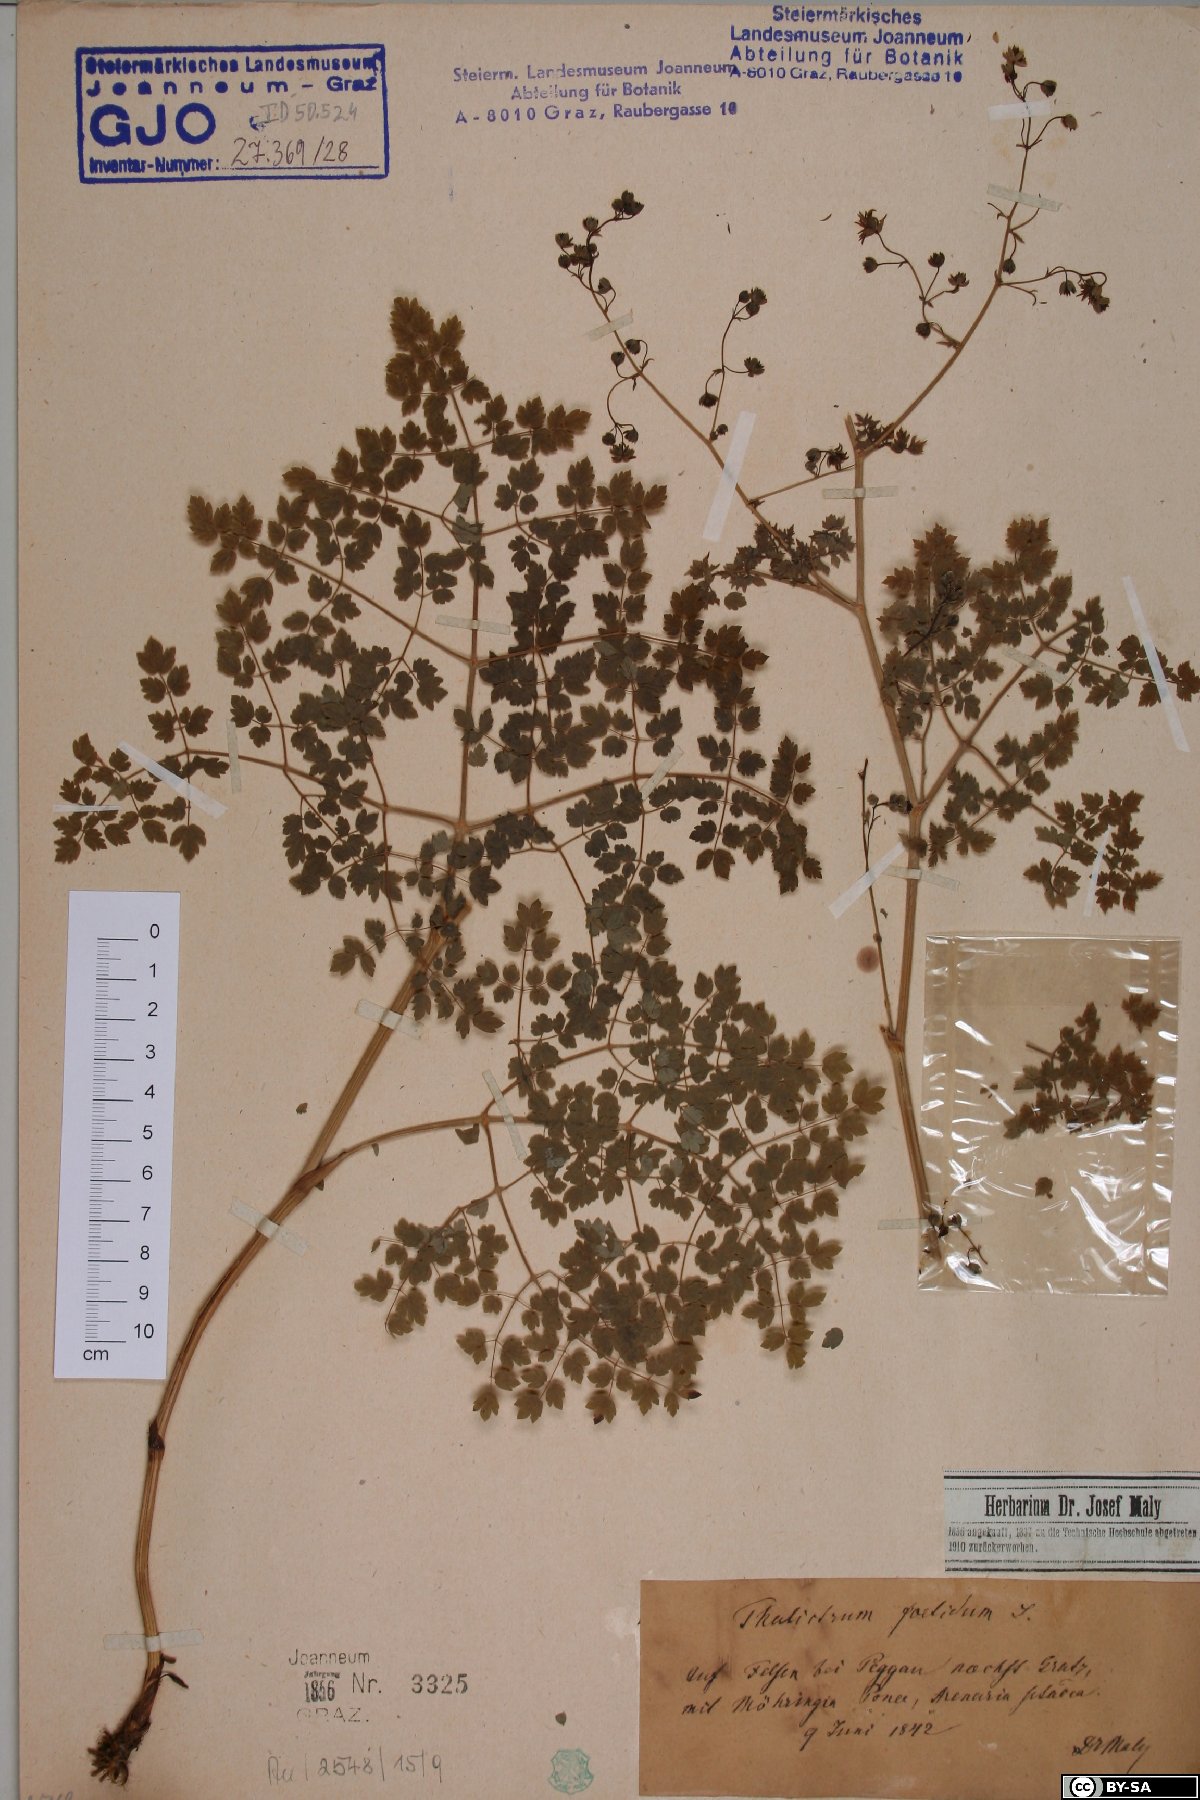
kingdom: Plantae
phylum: Tracheophyta
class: Magnoliopsida
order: Ranunculales
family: Ranunculaceae
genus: Thalictrum
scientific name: Thalictrum foetidum
